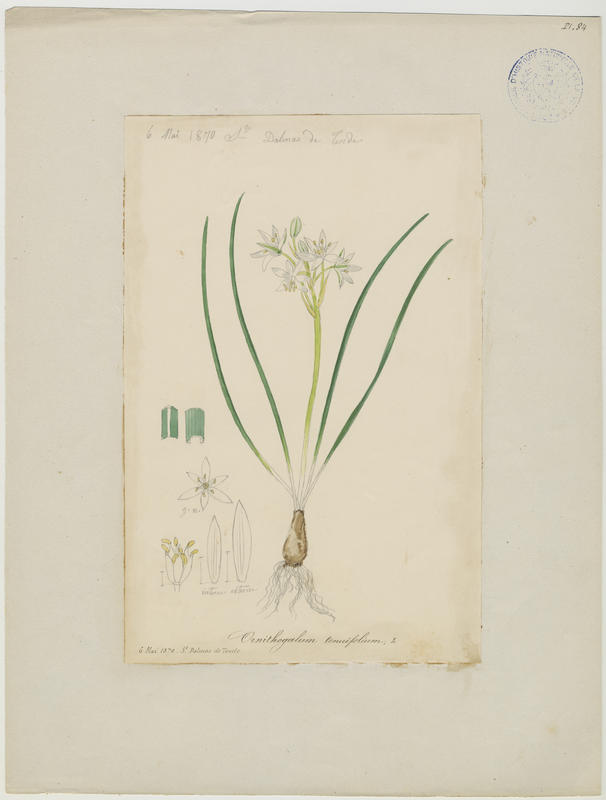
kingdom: Plantae
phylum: Tracheophyta
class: Liliopsida
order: Asparagales
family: Asparagaceae
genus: Ornithogalum
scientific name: Ornithogalum gussonei
